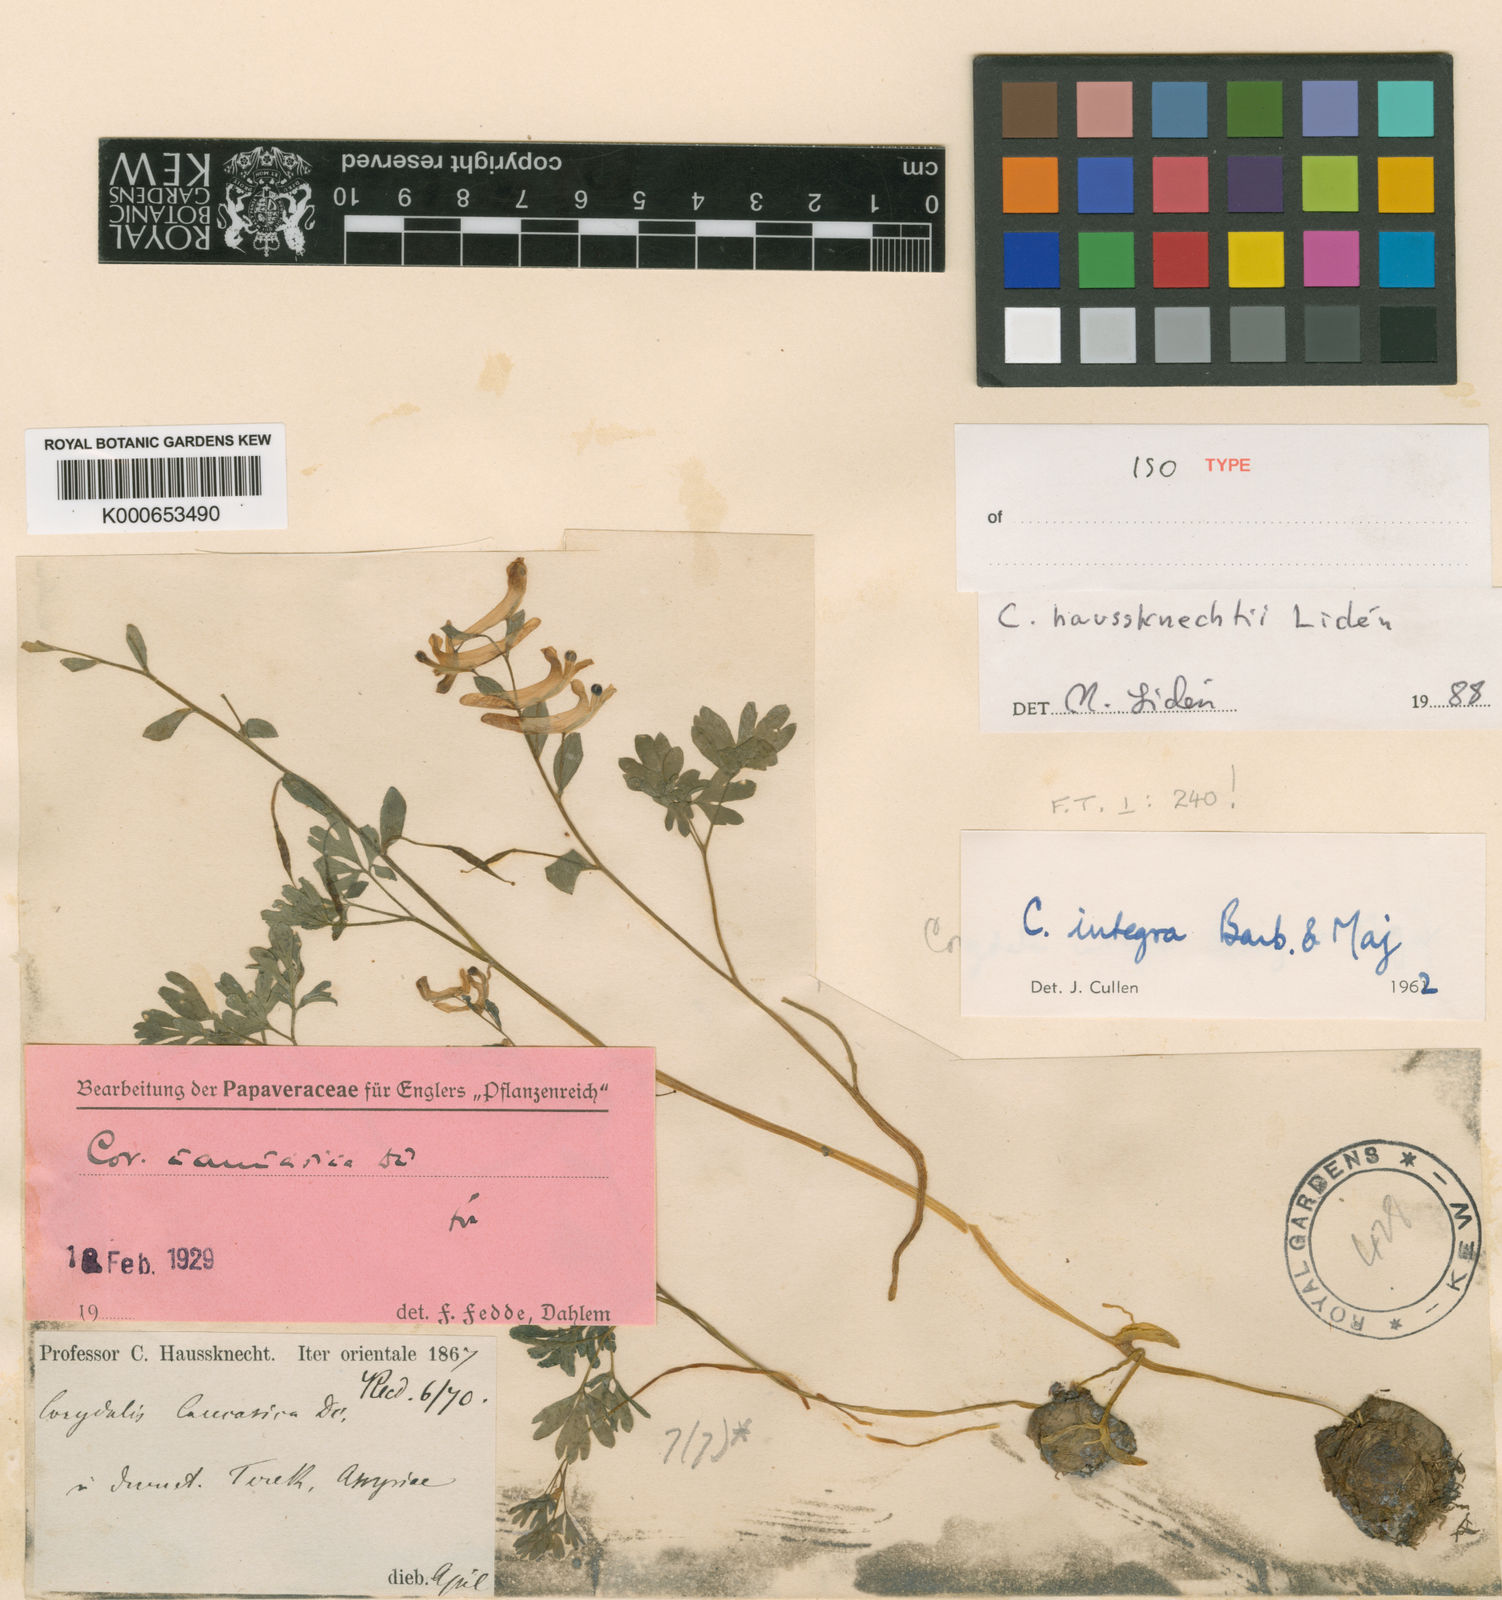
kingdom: Plantae
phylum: Tracheophyta
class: Magnoliopsida
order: Ranunculales
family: Papaveraceae
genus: Corydalis
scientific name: Corydalis
